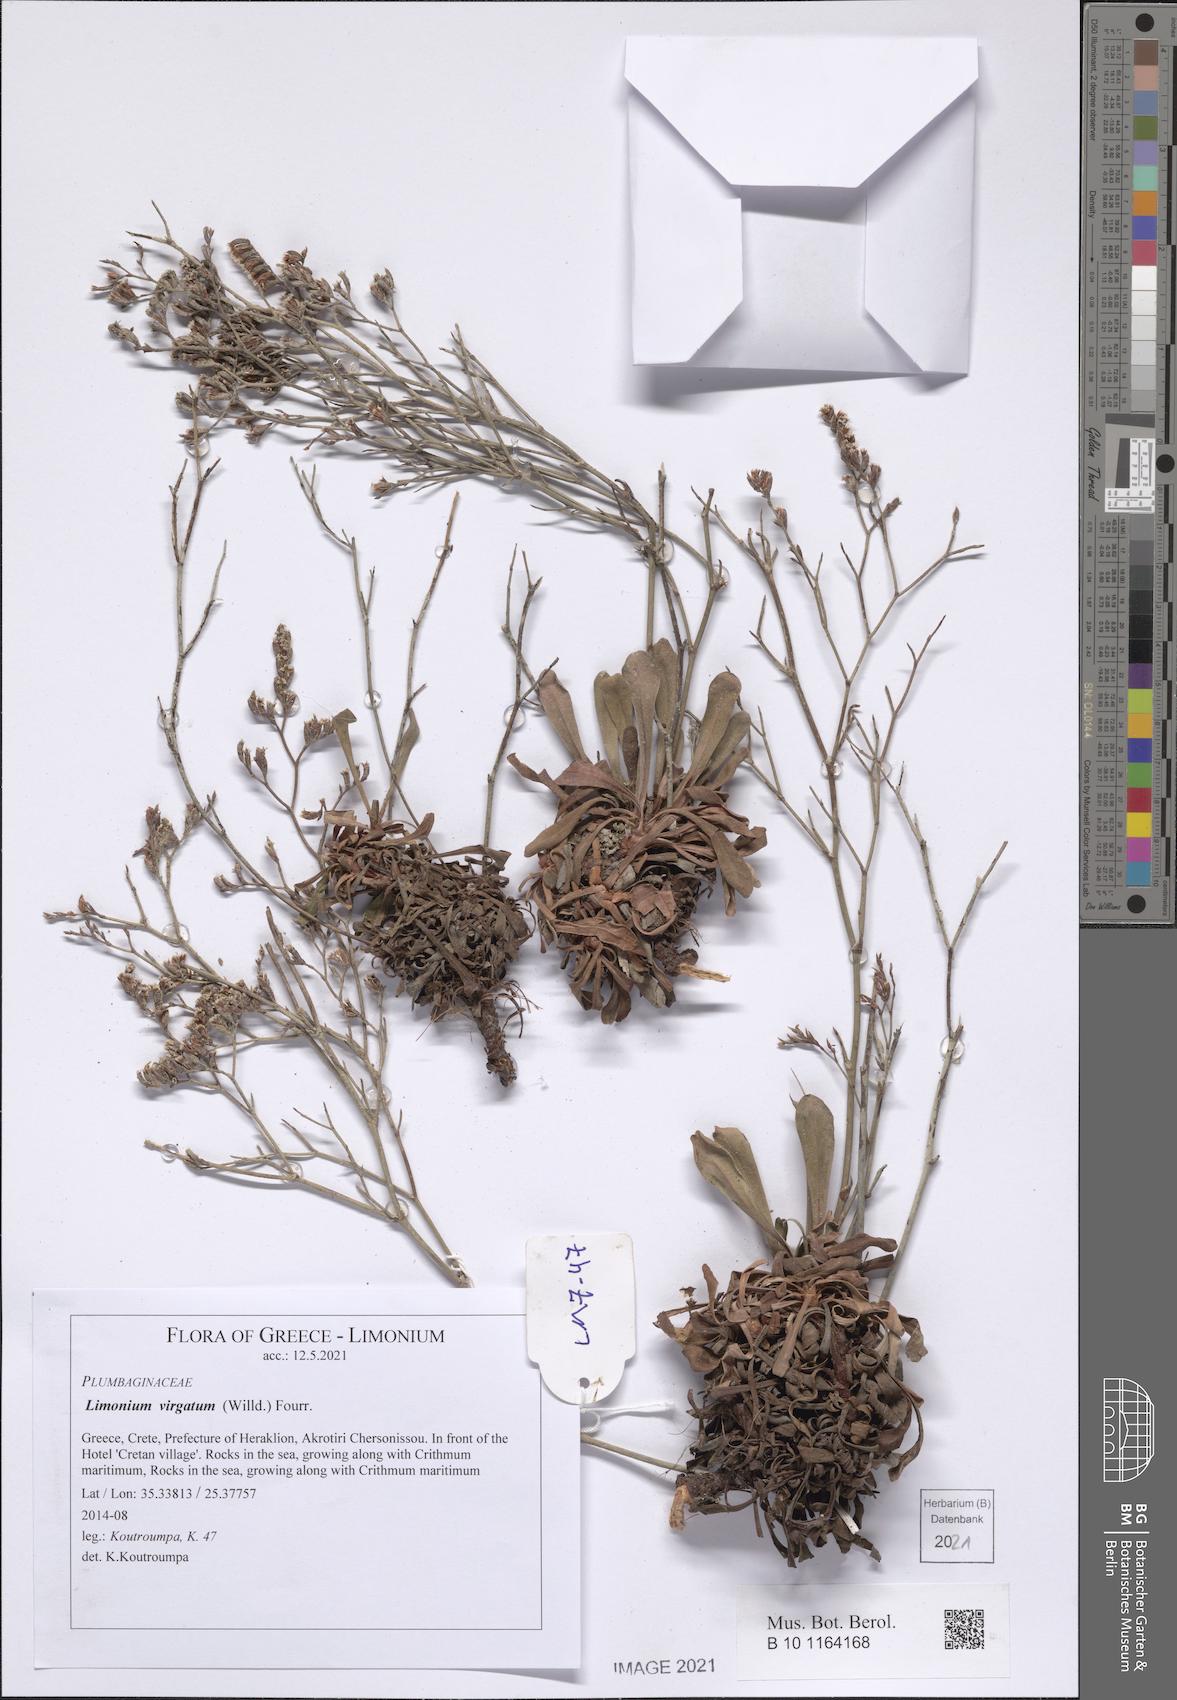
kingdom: Plantae
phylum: Tracheophyta
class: Magnoliopsida
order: Caryophyllales
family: Plumbaginaceae
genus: Limonium
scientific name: Limonium virgatum
